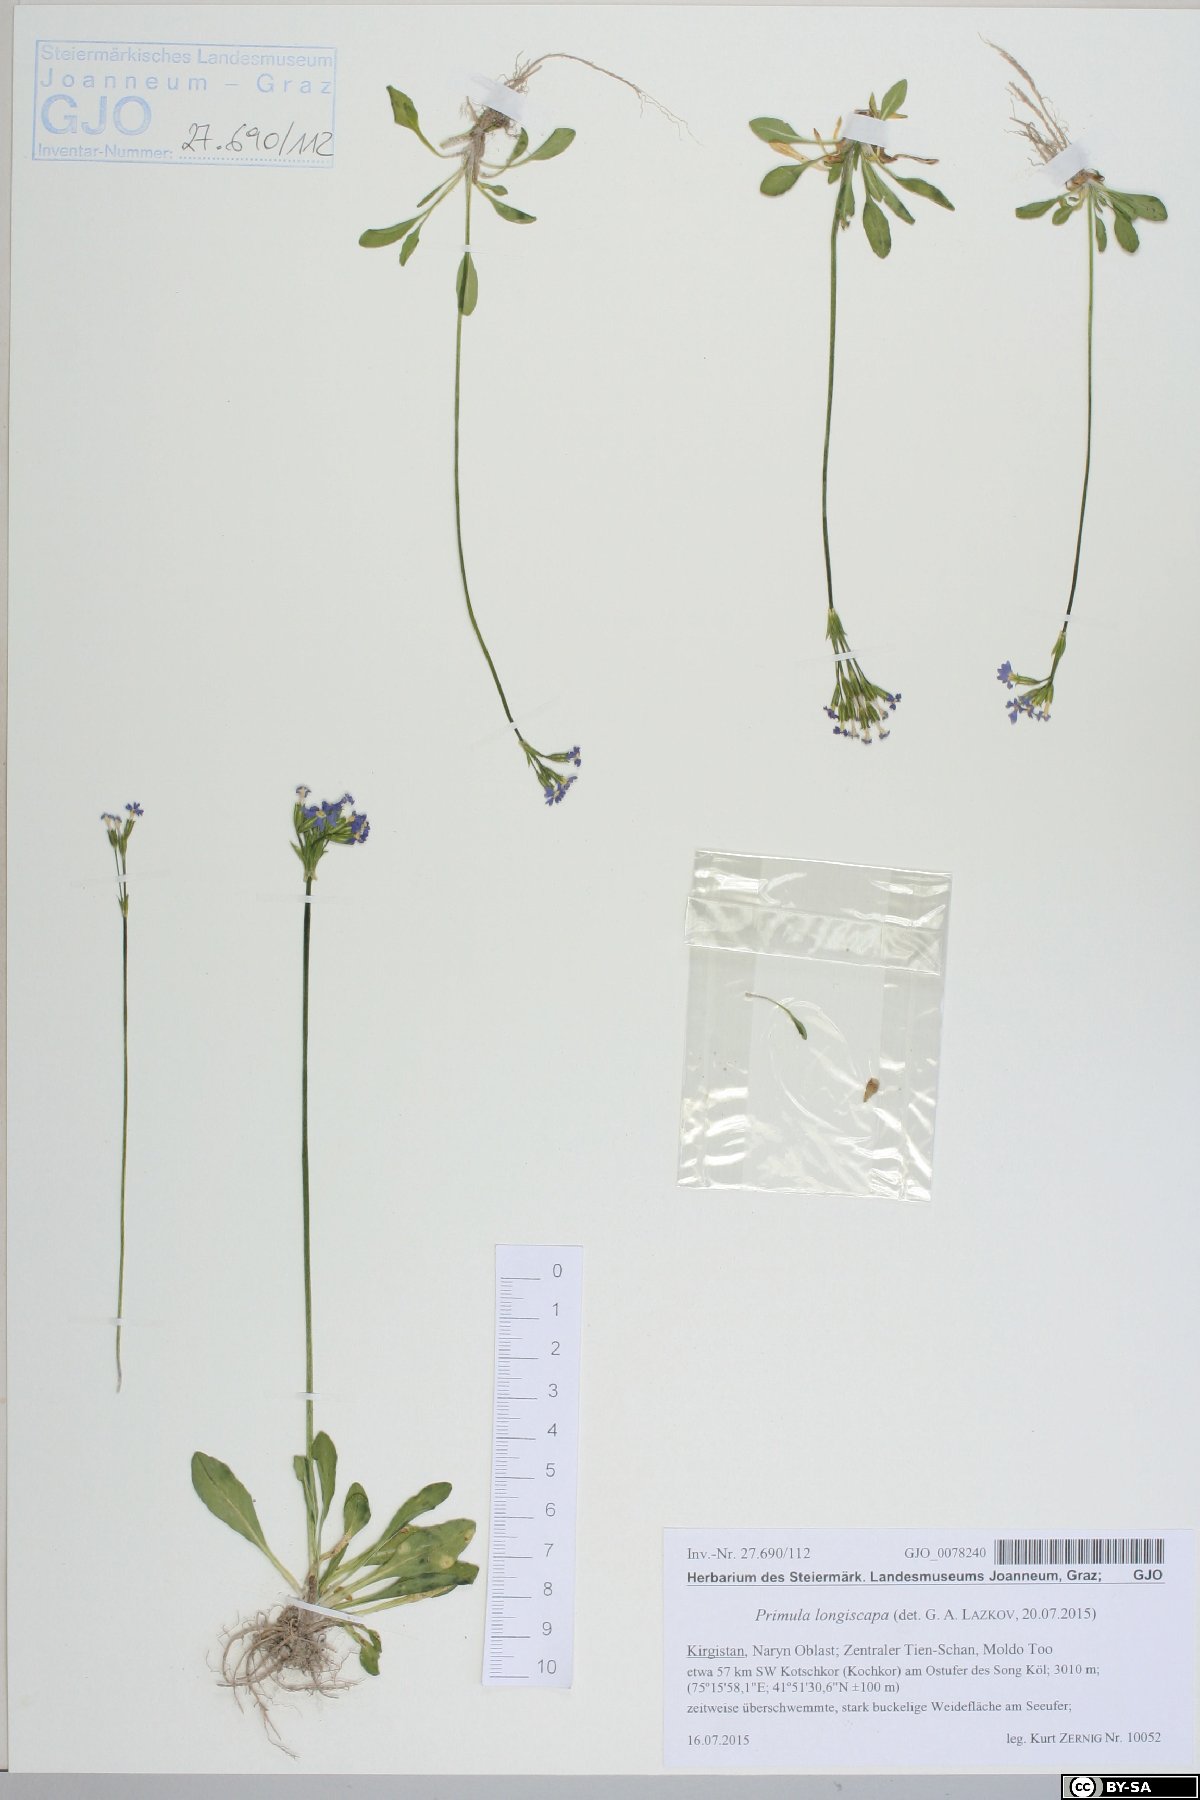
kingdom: Plantae
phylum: Tracheophyta
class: Magnoliopsida
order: Ericales
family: Primulaceae
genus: Primula
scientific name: Primula longiscapa
